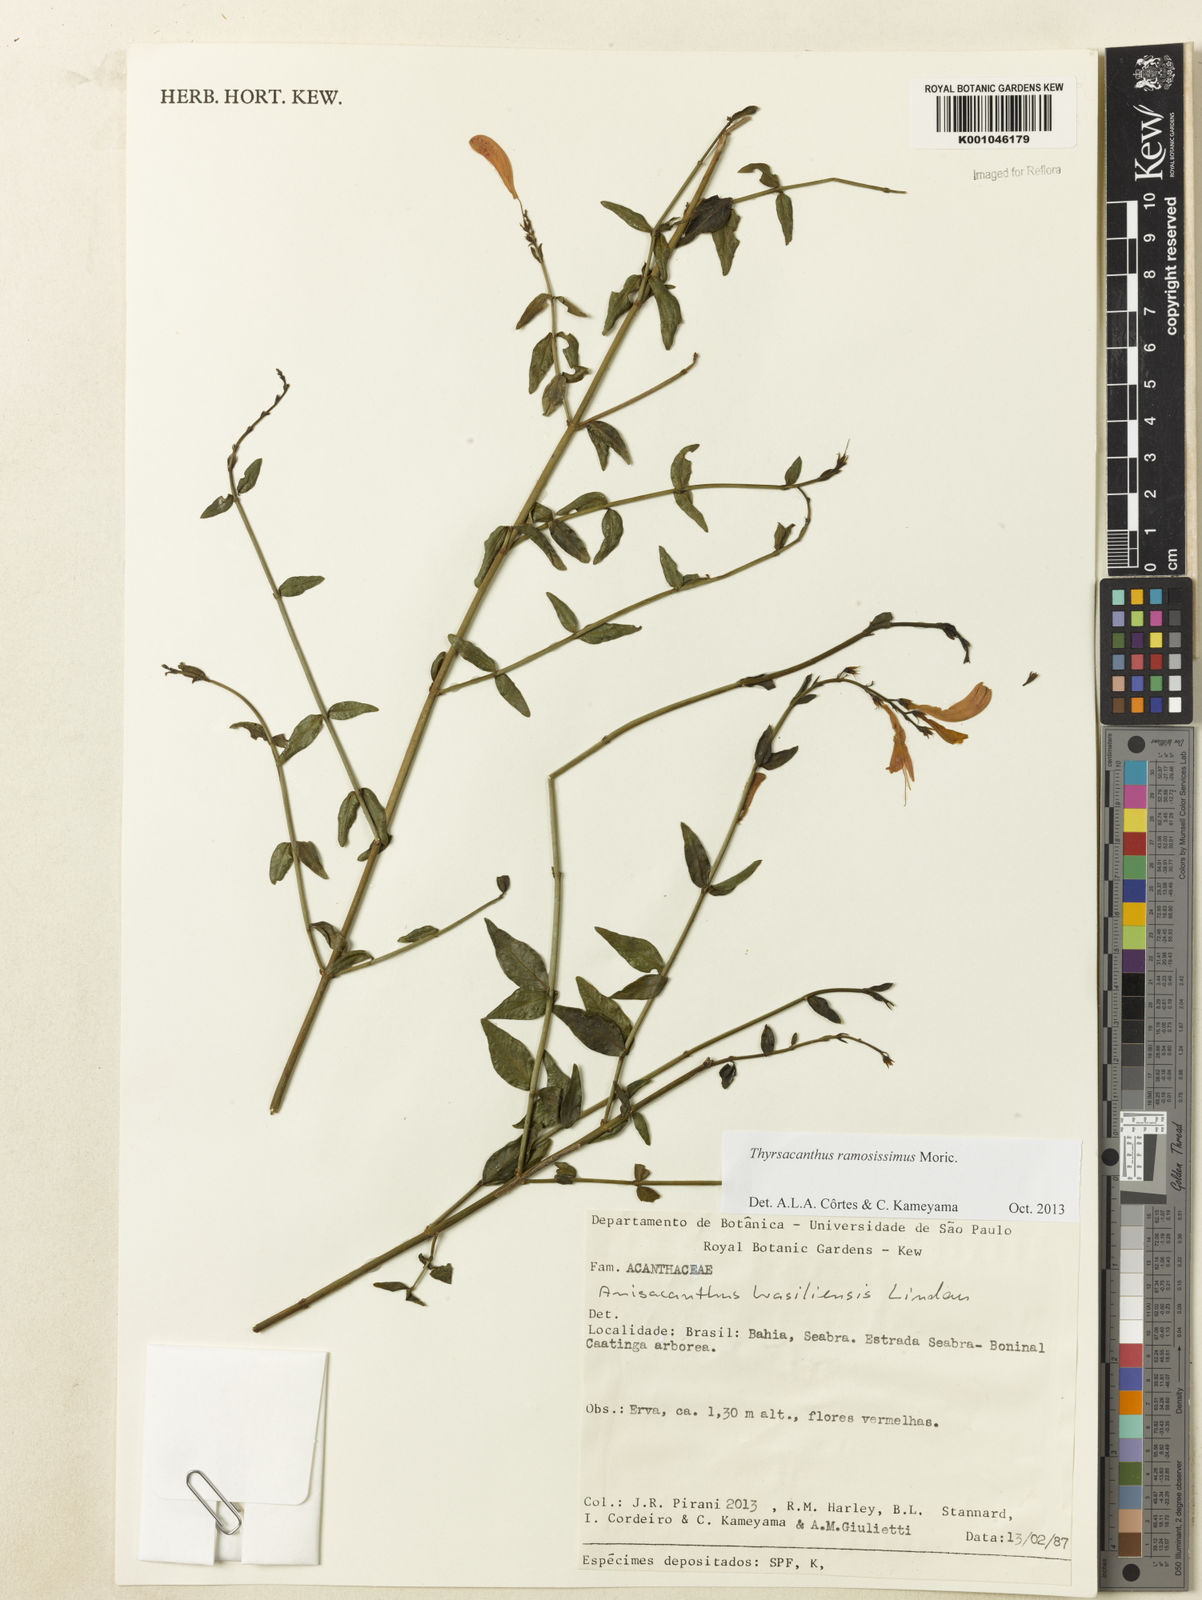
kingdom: Plantae
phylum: Tracheophyta
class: Magnoliopsida
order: Lamiales
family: Acanthaceae
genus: Thyrsacanthus
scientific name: Thyrsacanthus ramosissimus
